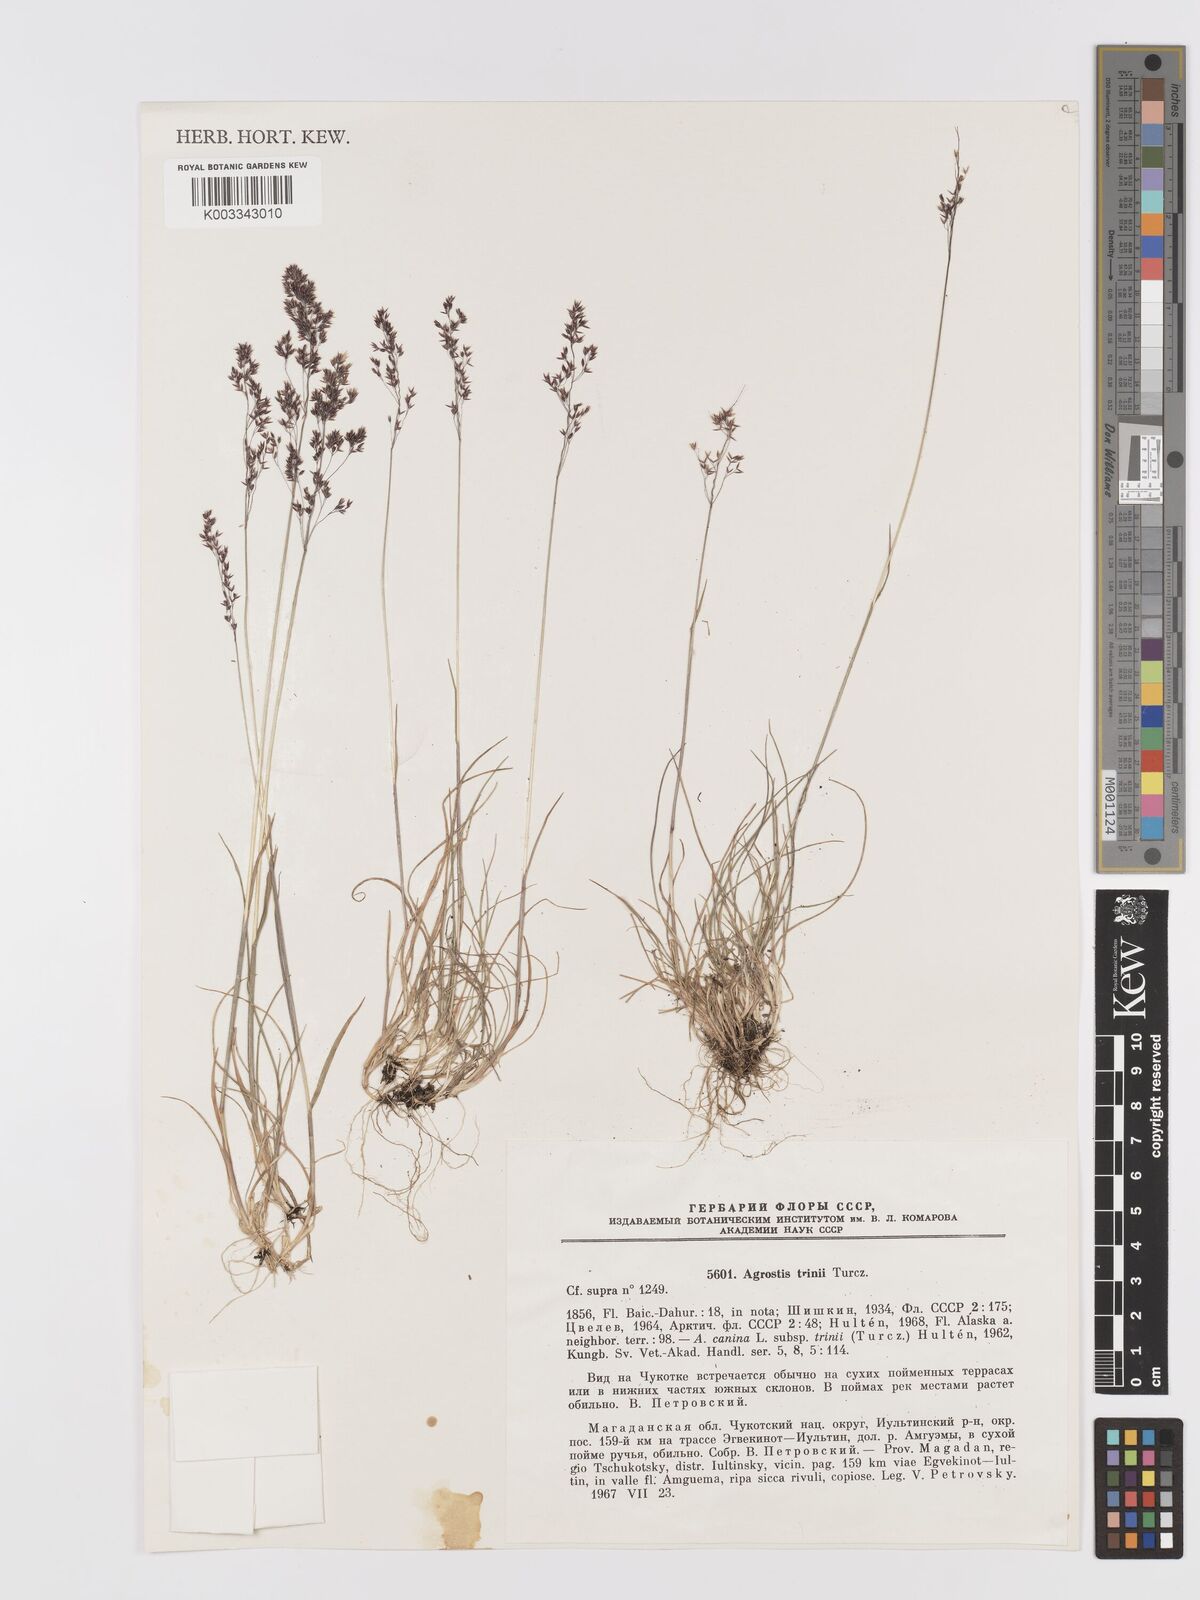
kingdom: Plantae
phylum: Tracheophyta
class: Liliopsida
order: Poales
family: Poaceae
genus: Agrostis
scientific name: Agrostis vinealis
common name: Brown bent
